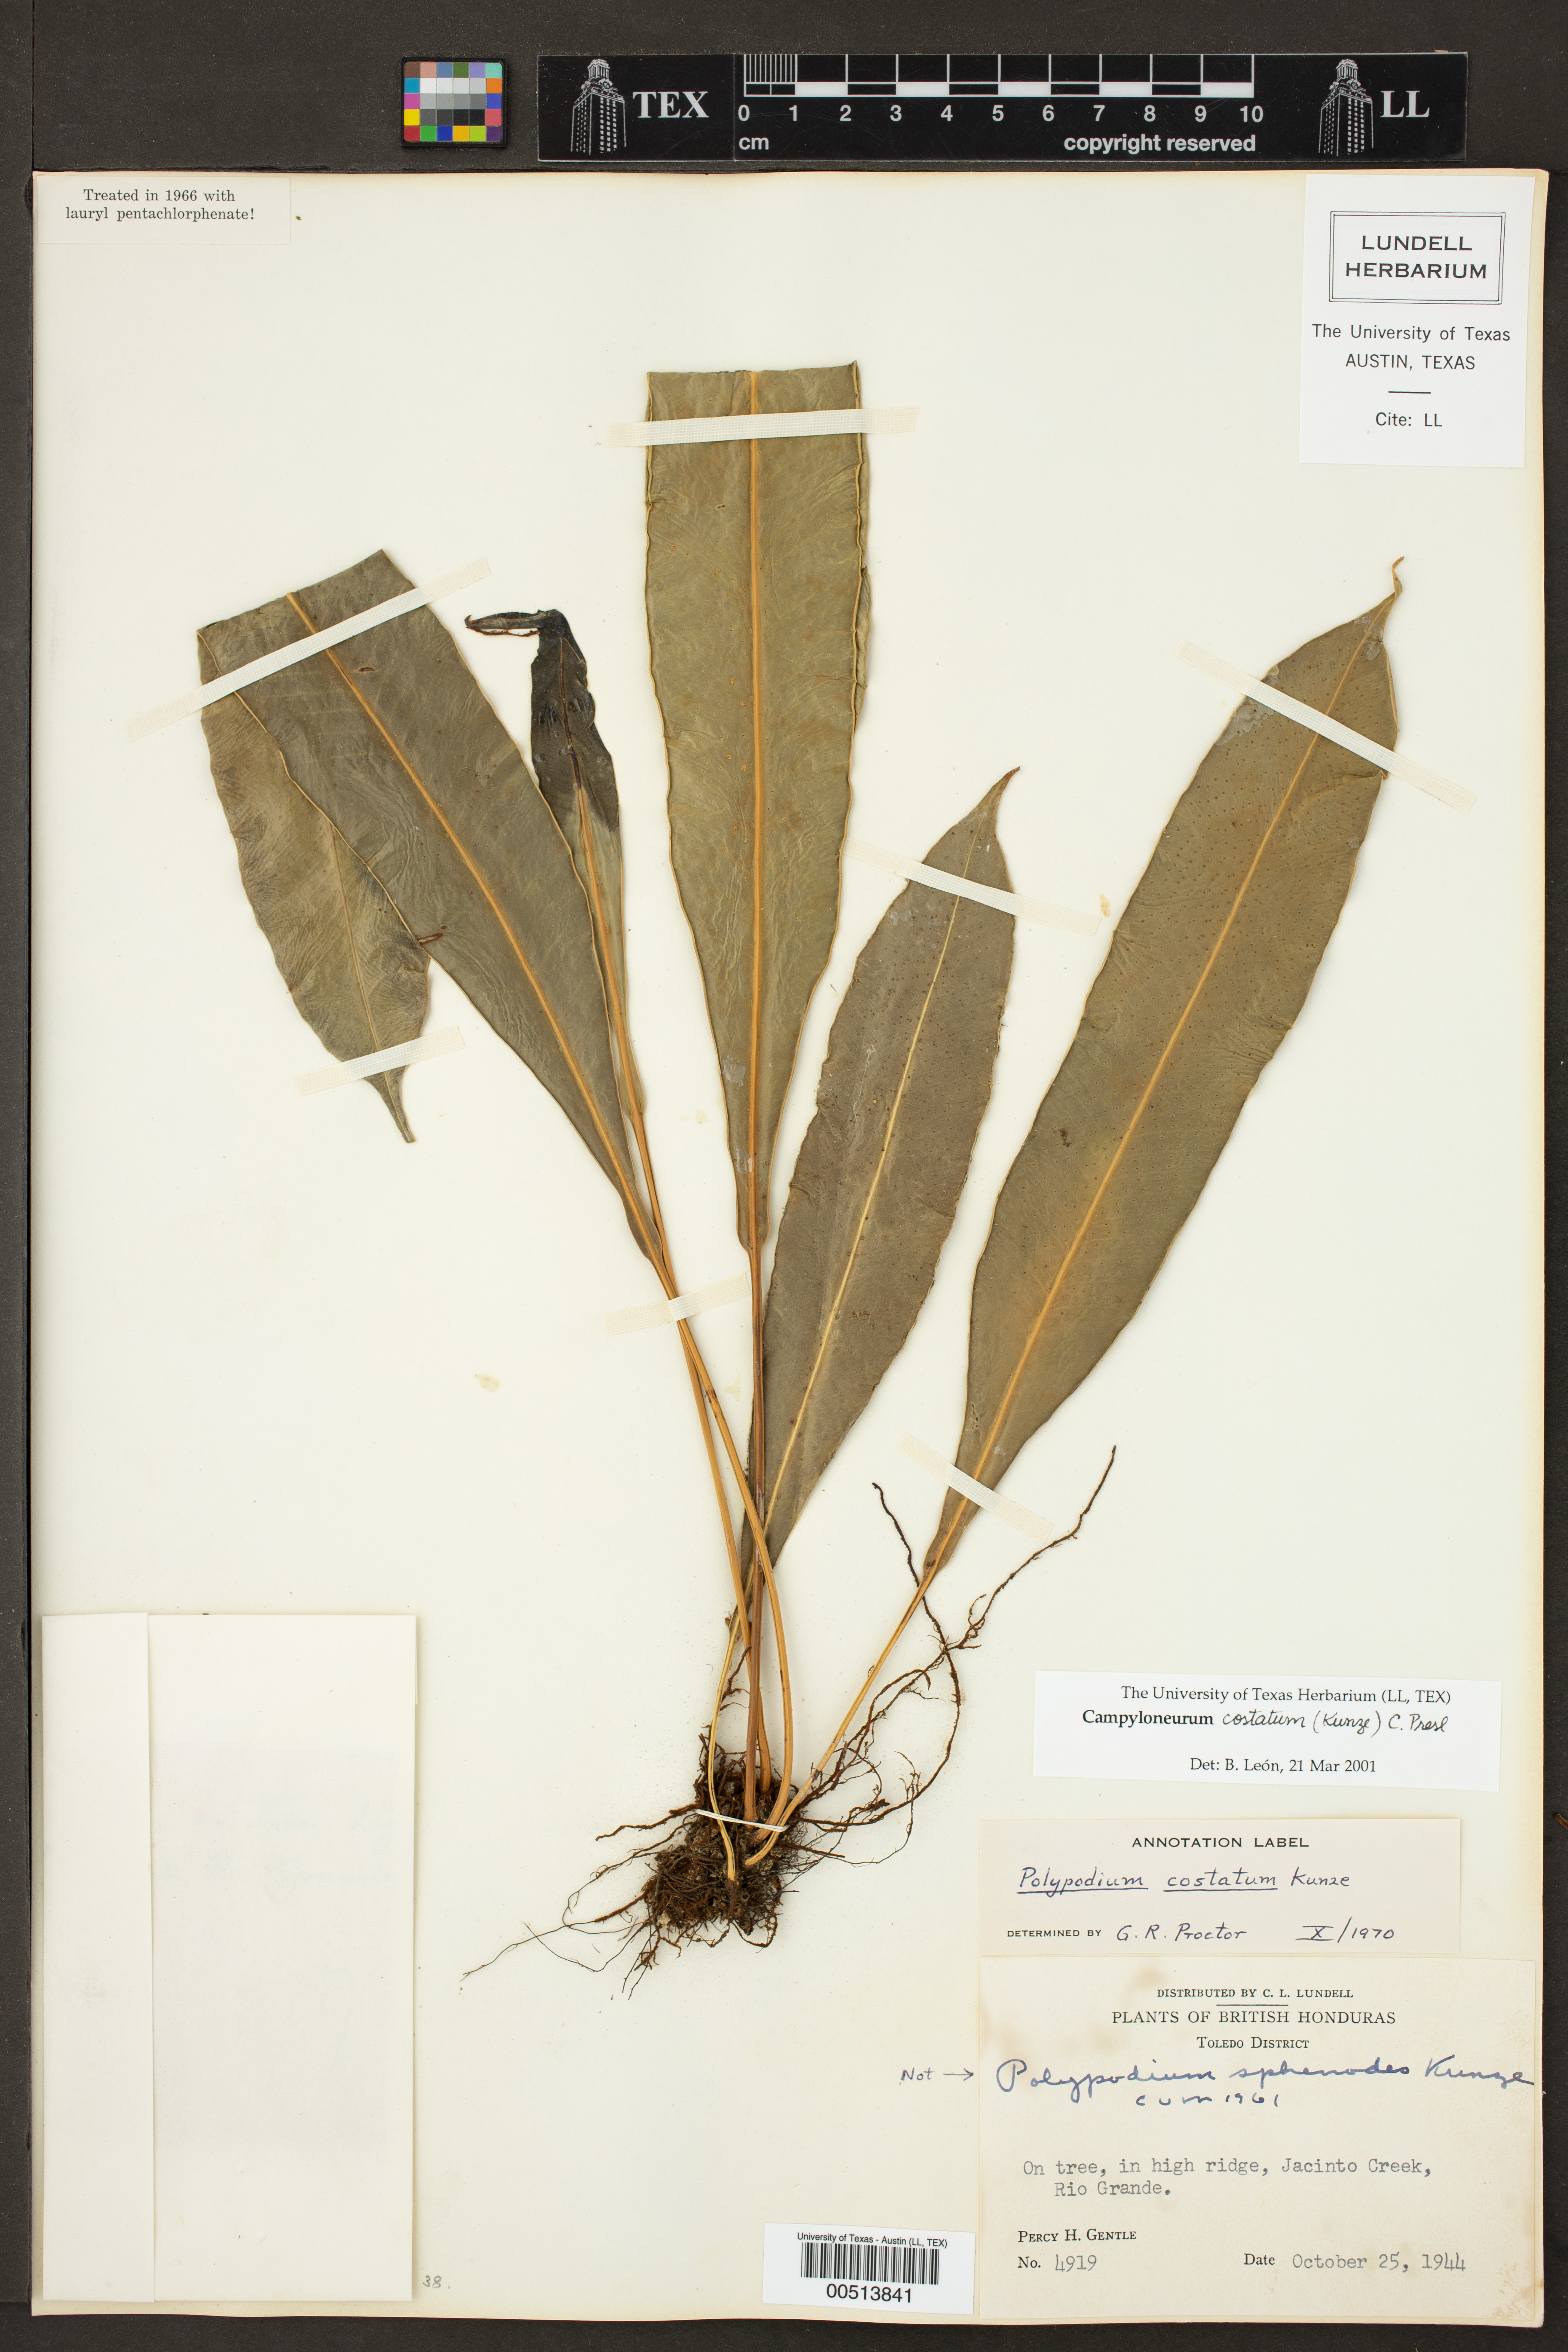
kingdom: Plantae
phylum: Tracheophyta
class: Polypodiopsida
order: Polypodiales
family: Polypodiaceae
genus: Campyloneurum
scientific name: Campyloneurum costatum
